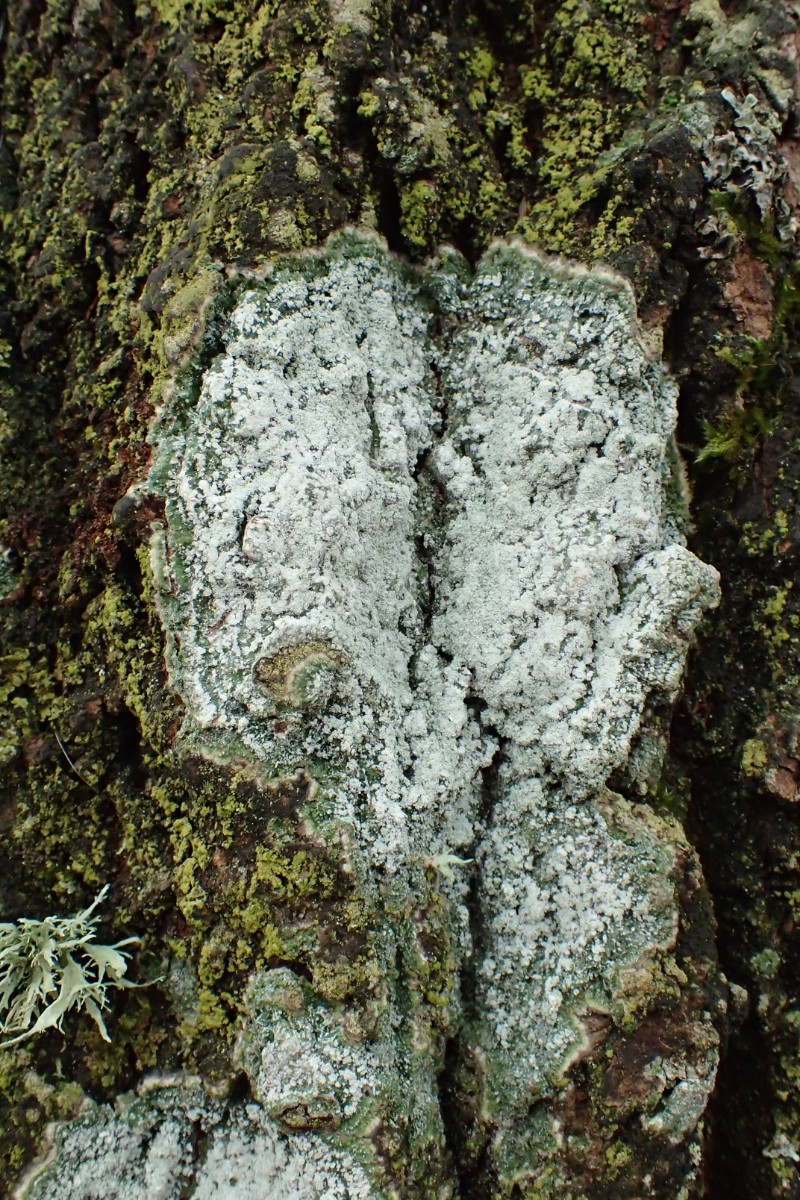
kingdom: Fungi
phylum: Ascomycota
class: Lecanoromycetes
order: Pertusariales
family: Pertusariaceae
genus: Lepra
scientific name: Lepra albescens
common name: hvidmelet prikvortelav
